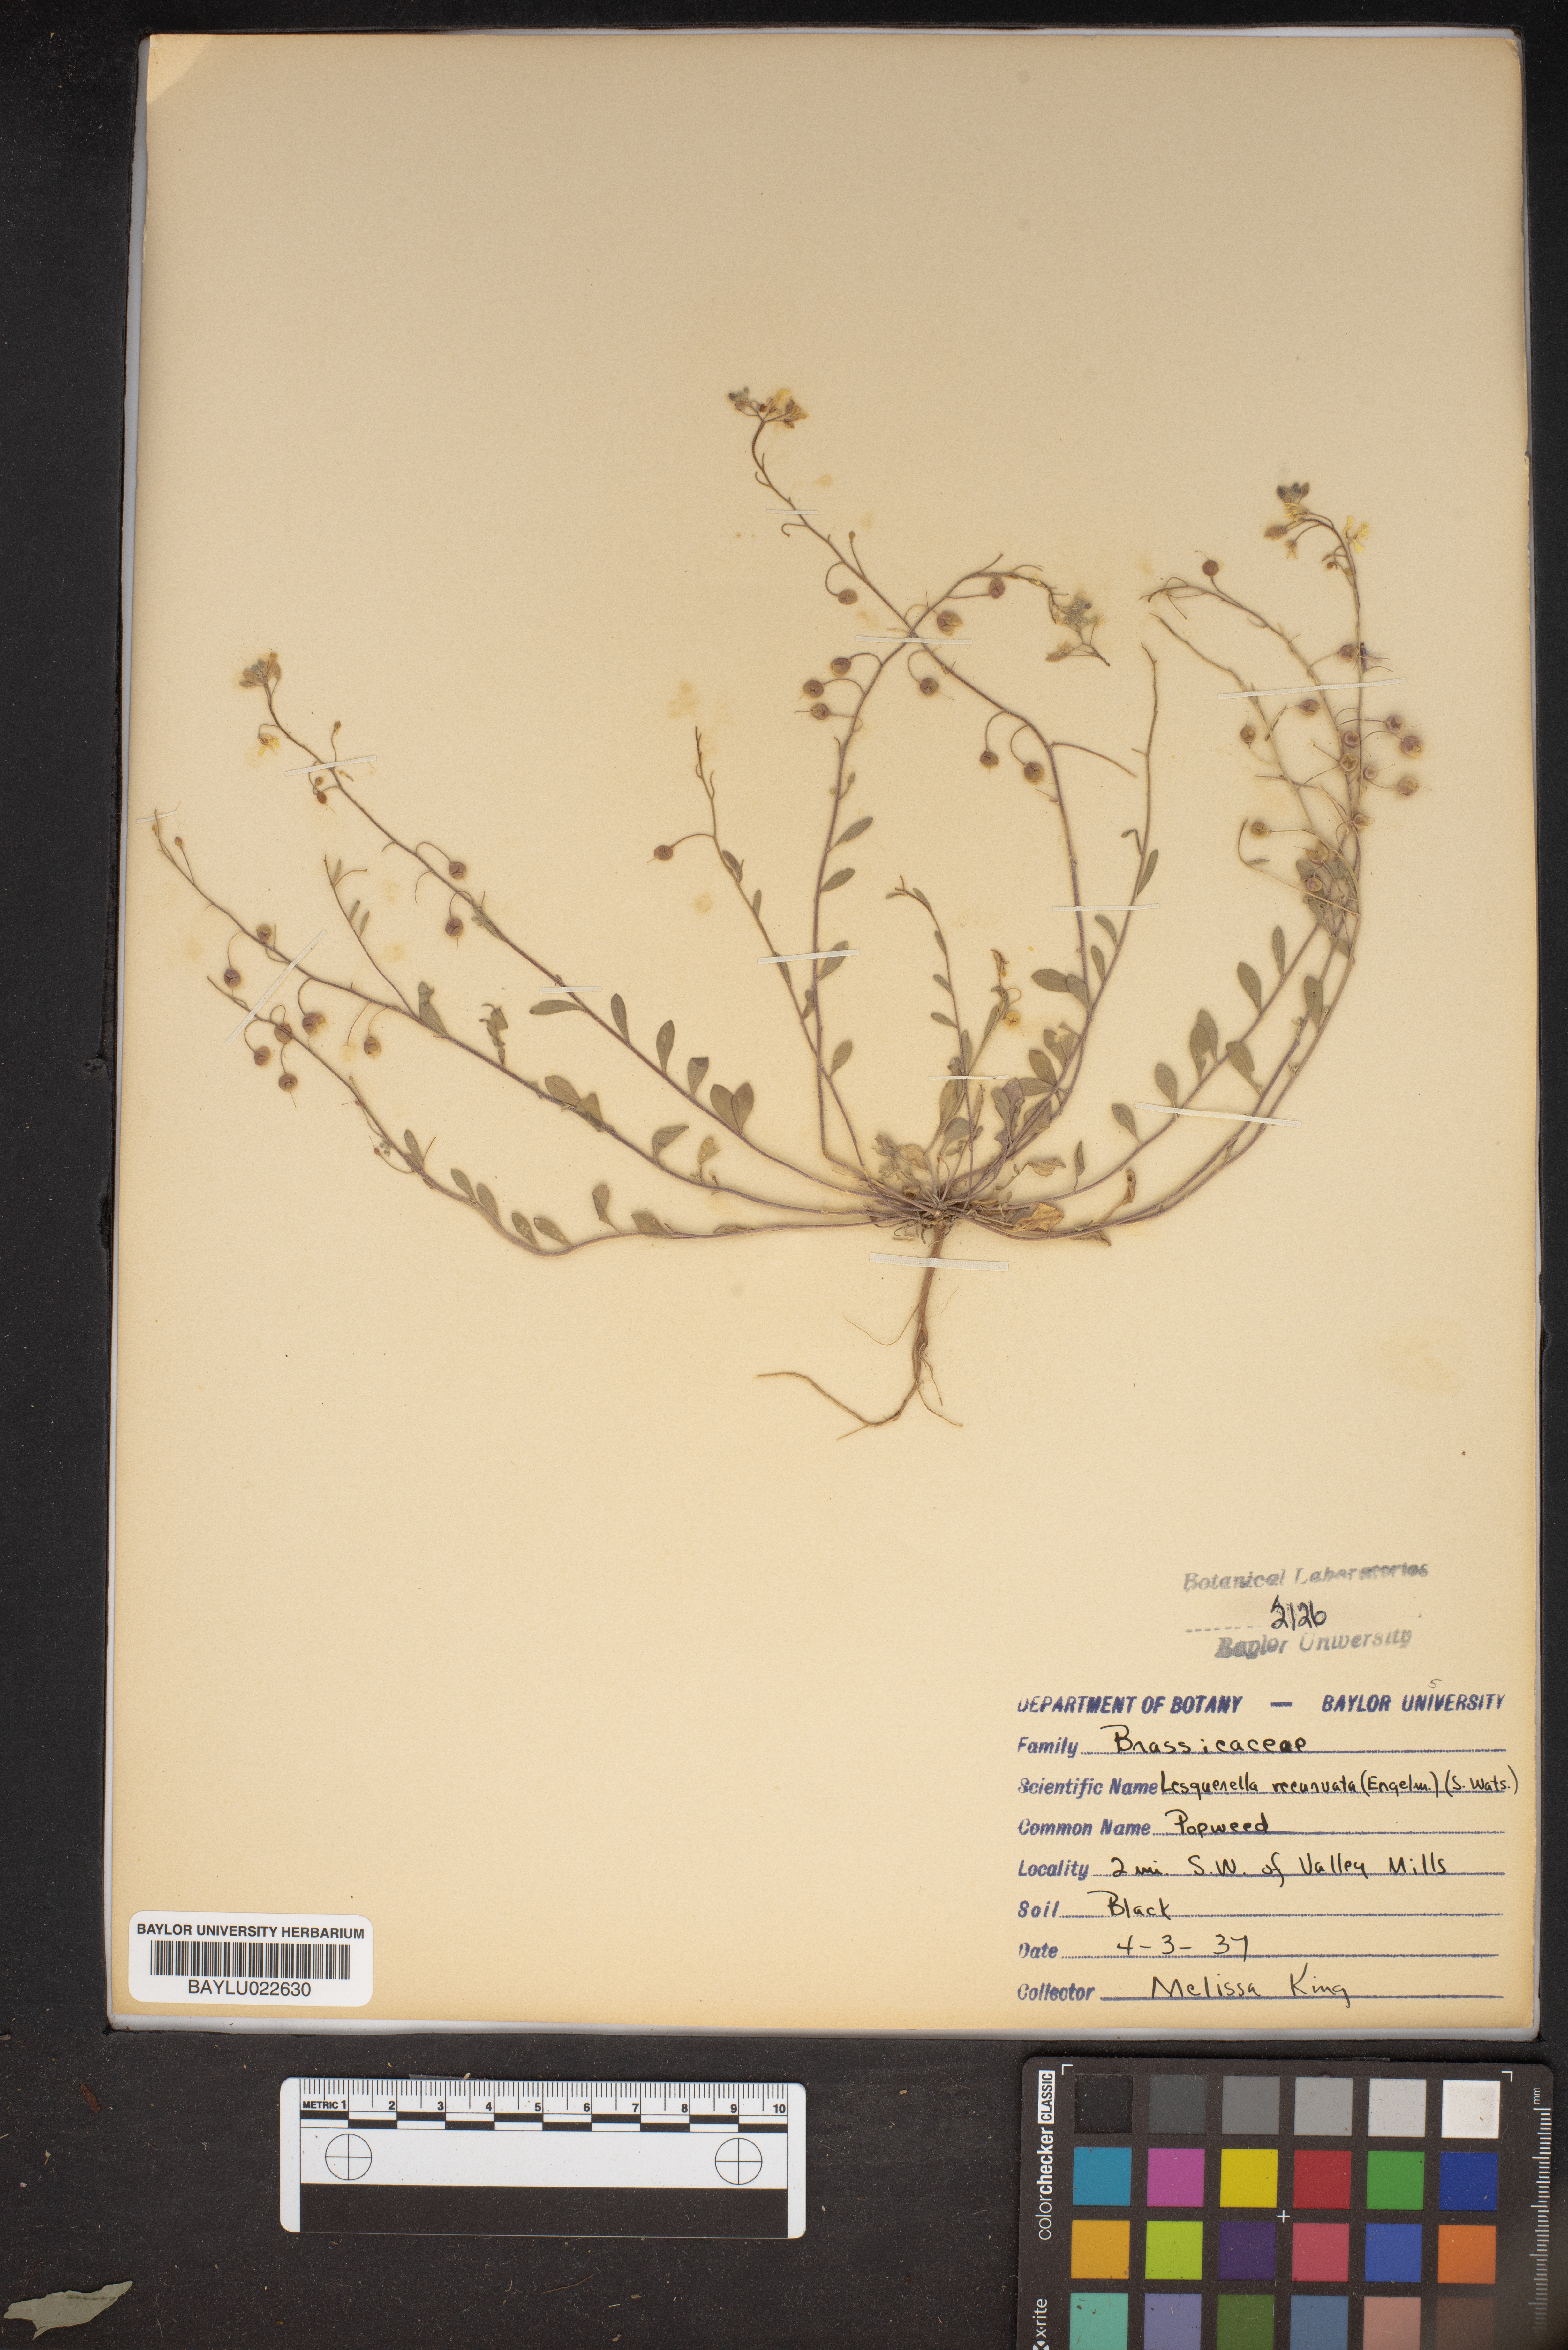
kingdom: Plantae
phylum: Tracheophyta
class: Magnoliopsida
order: Brassicales
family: Brassicaceae
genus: Physaria
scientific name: Physaria recurvata
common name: Gaslight bladderpod
